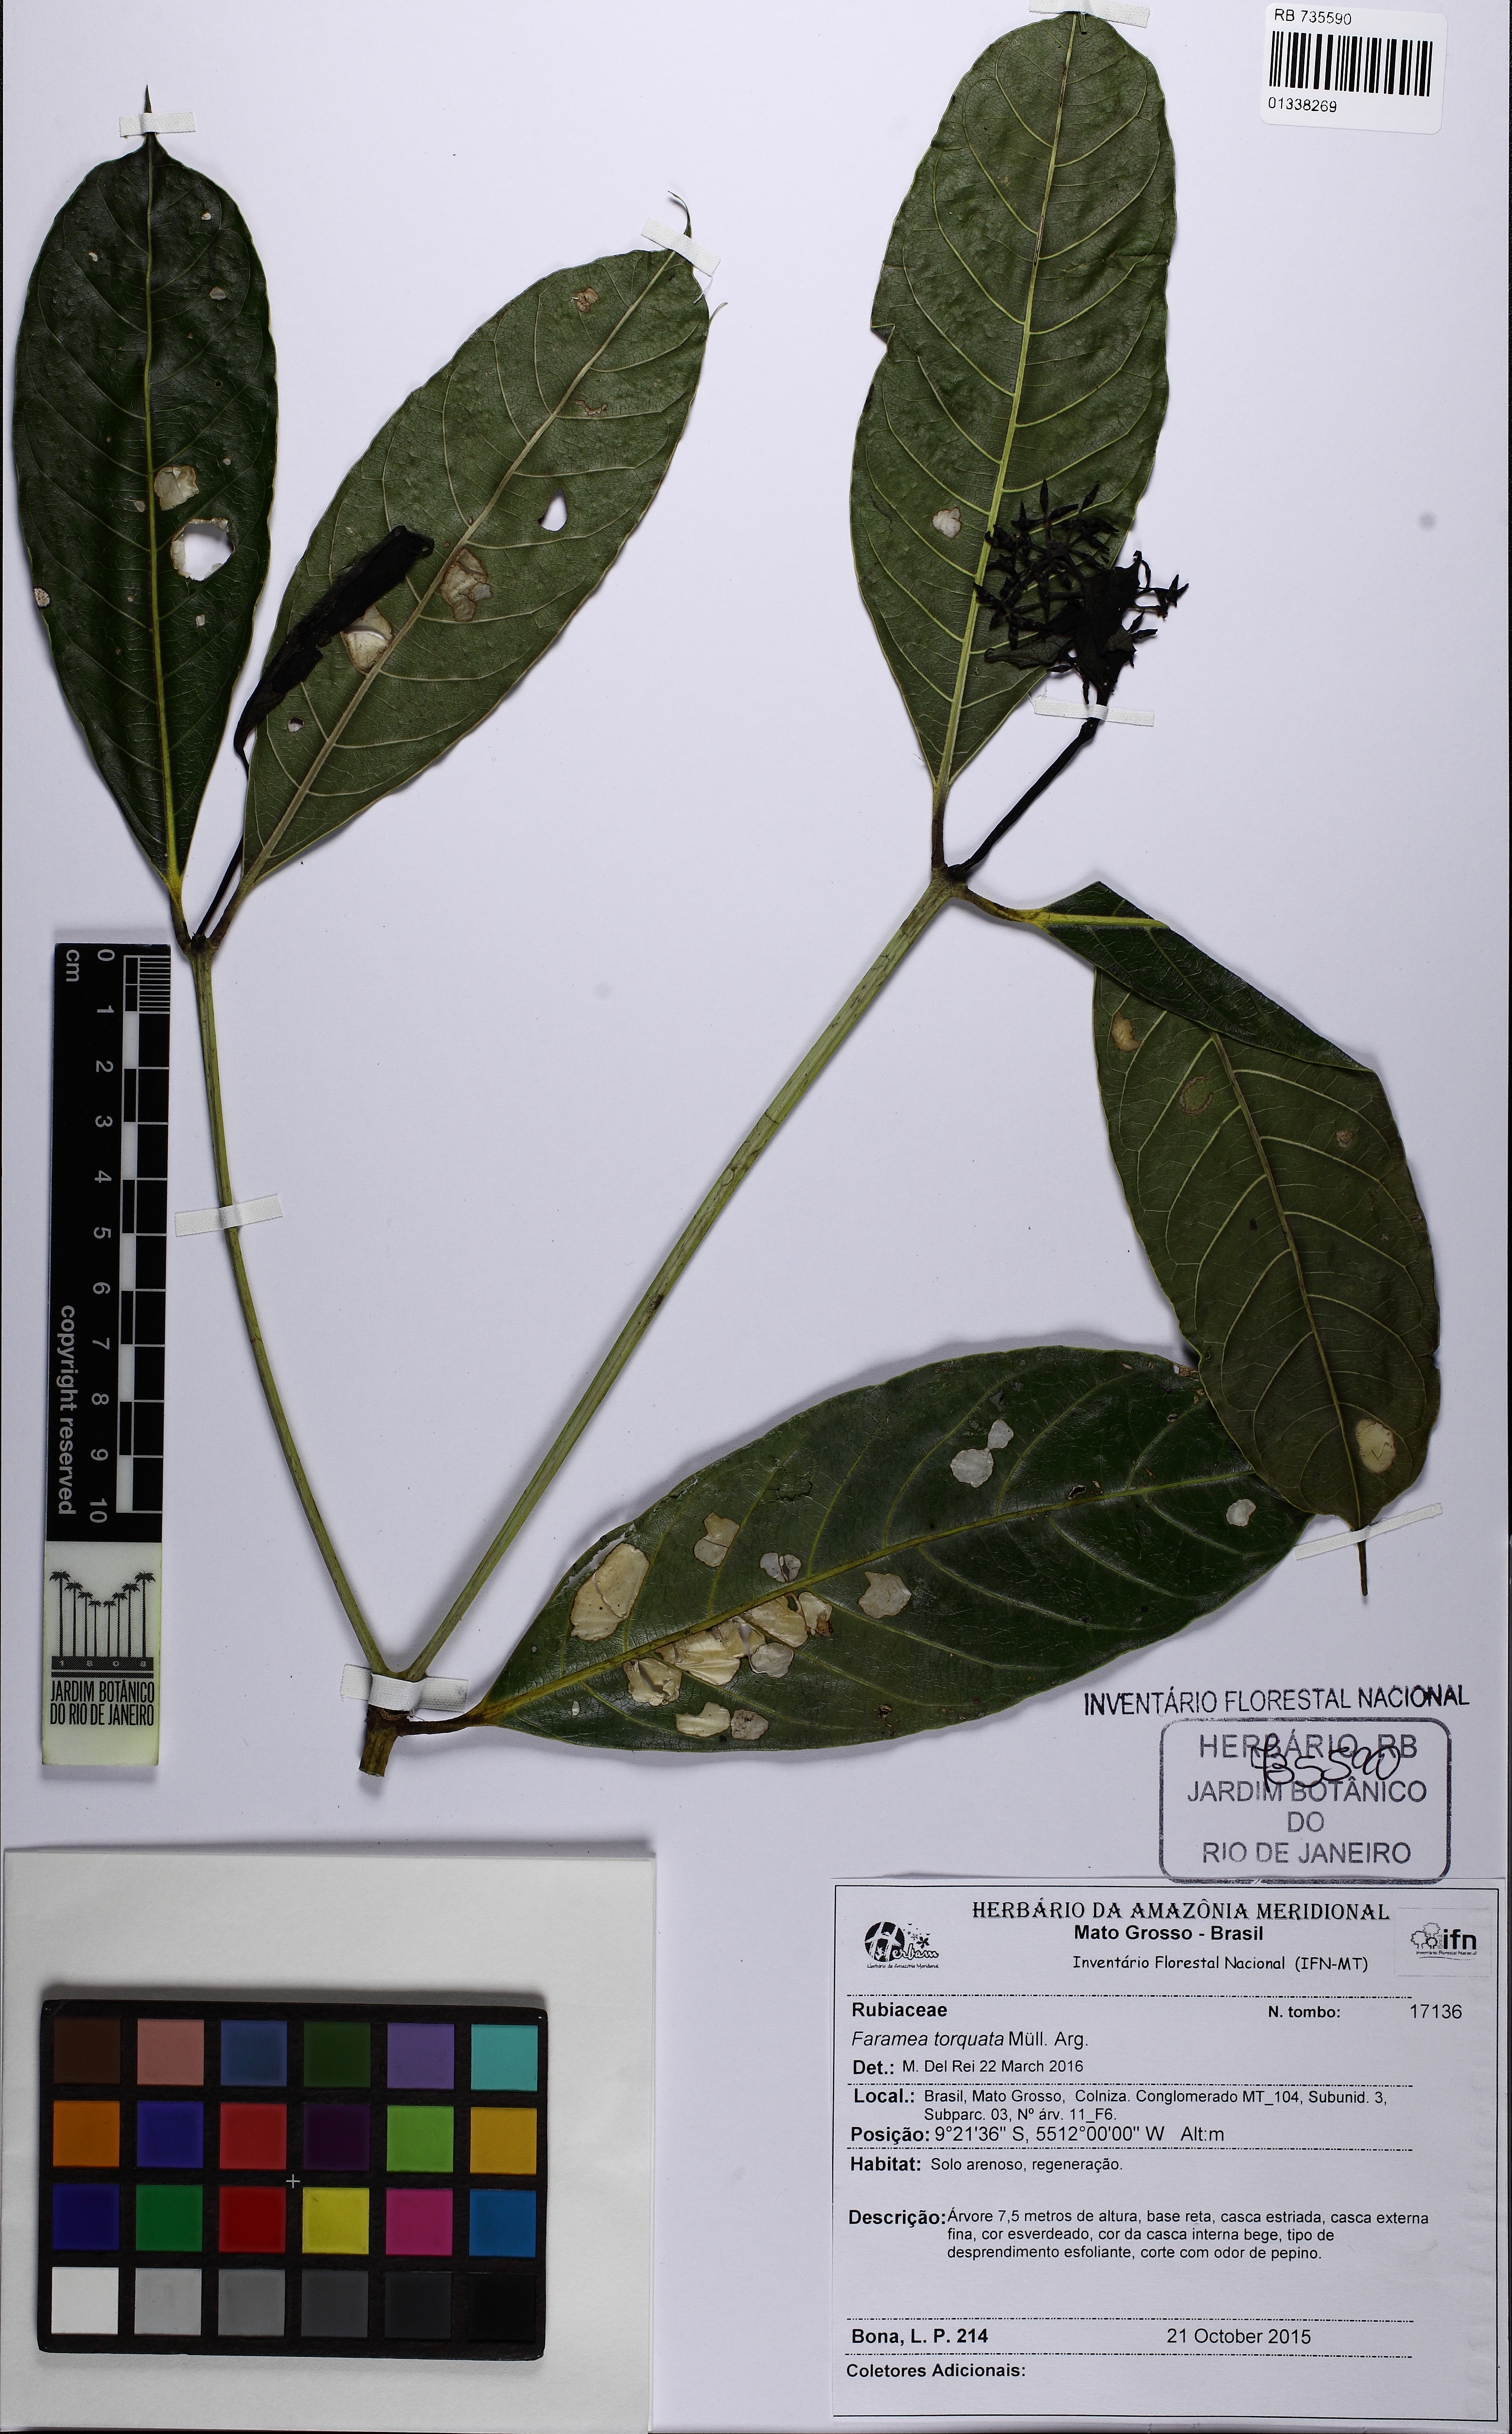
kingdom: Plantae
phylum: Tracheophyta
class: Magnoliopsida
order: Gentianales
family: Rubiaceae
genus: Faramea
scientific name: Faramea torquata
